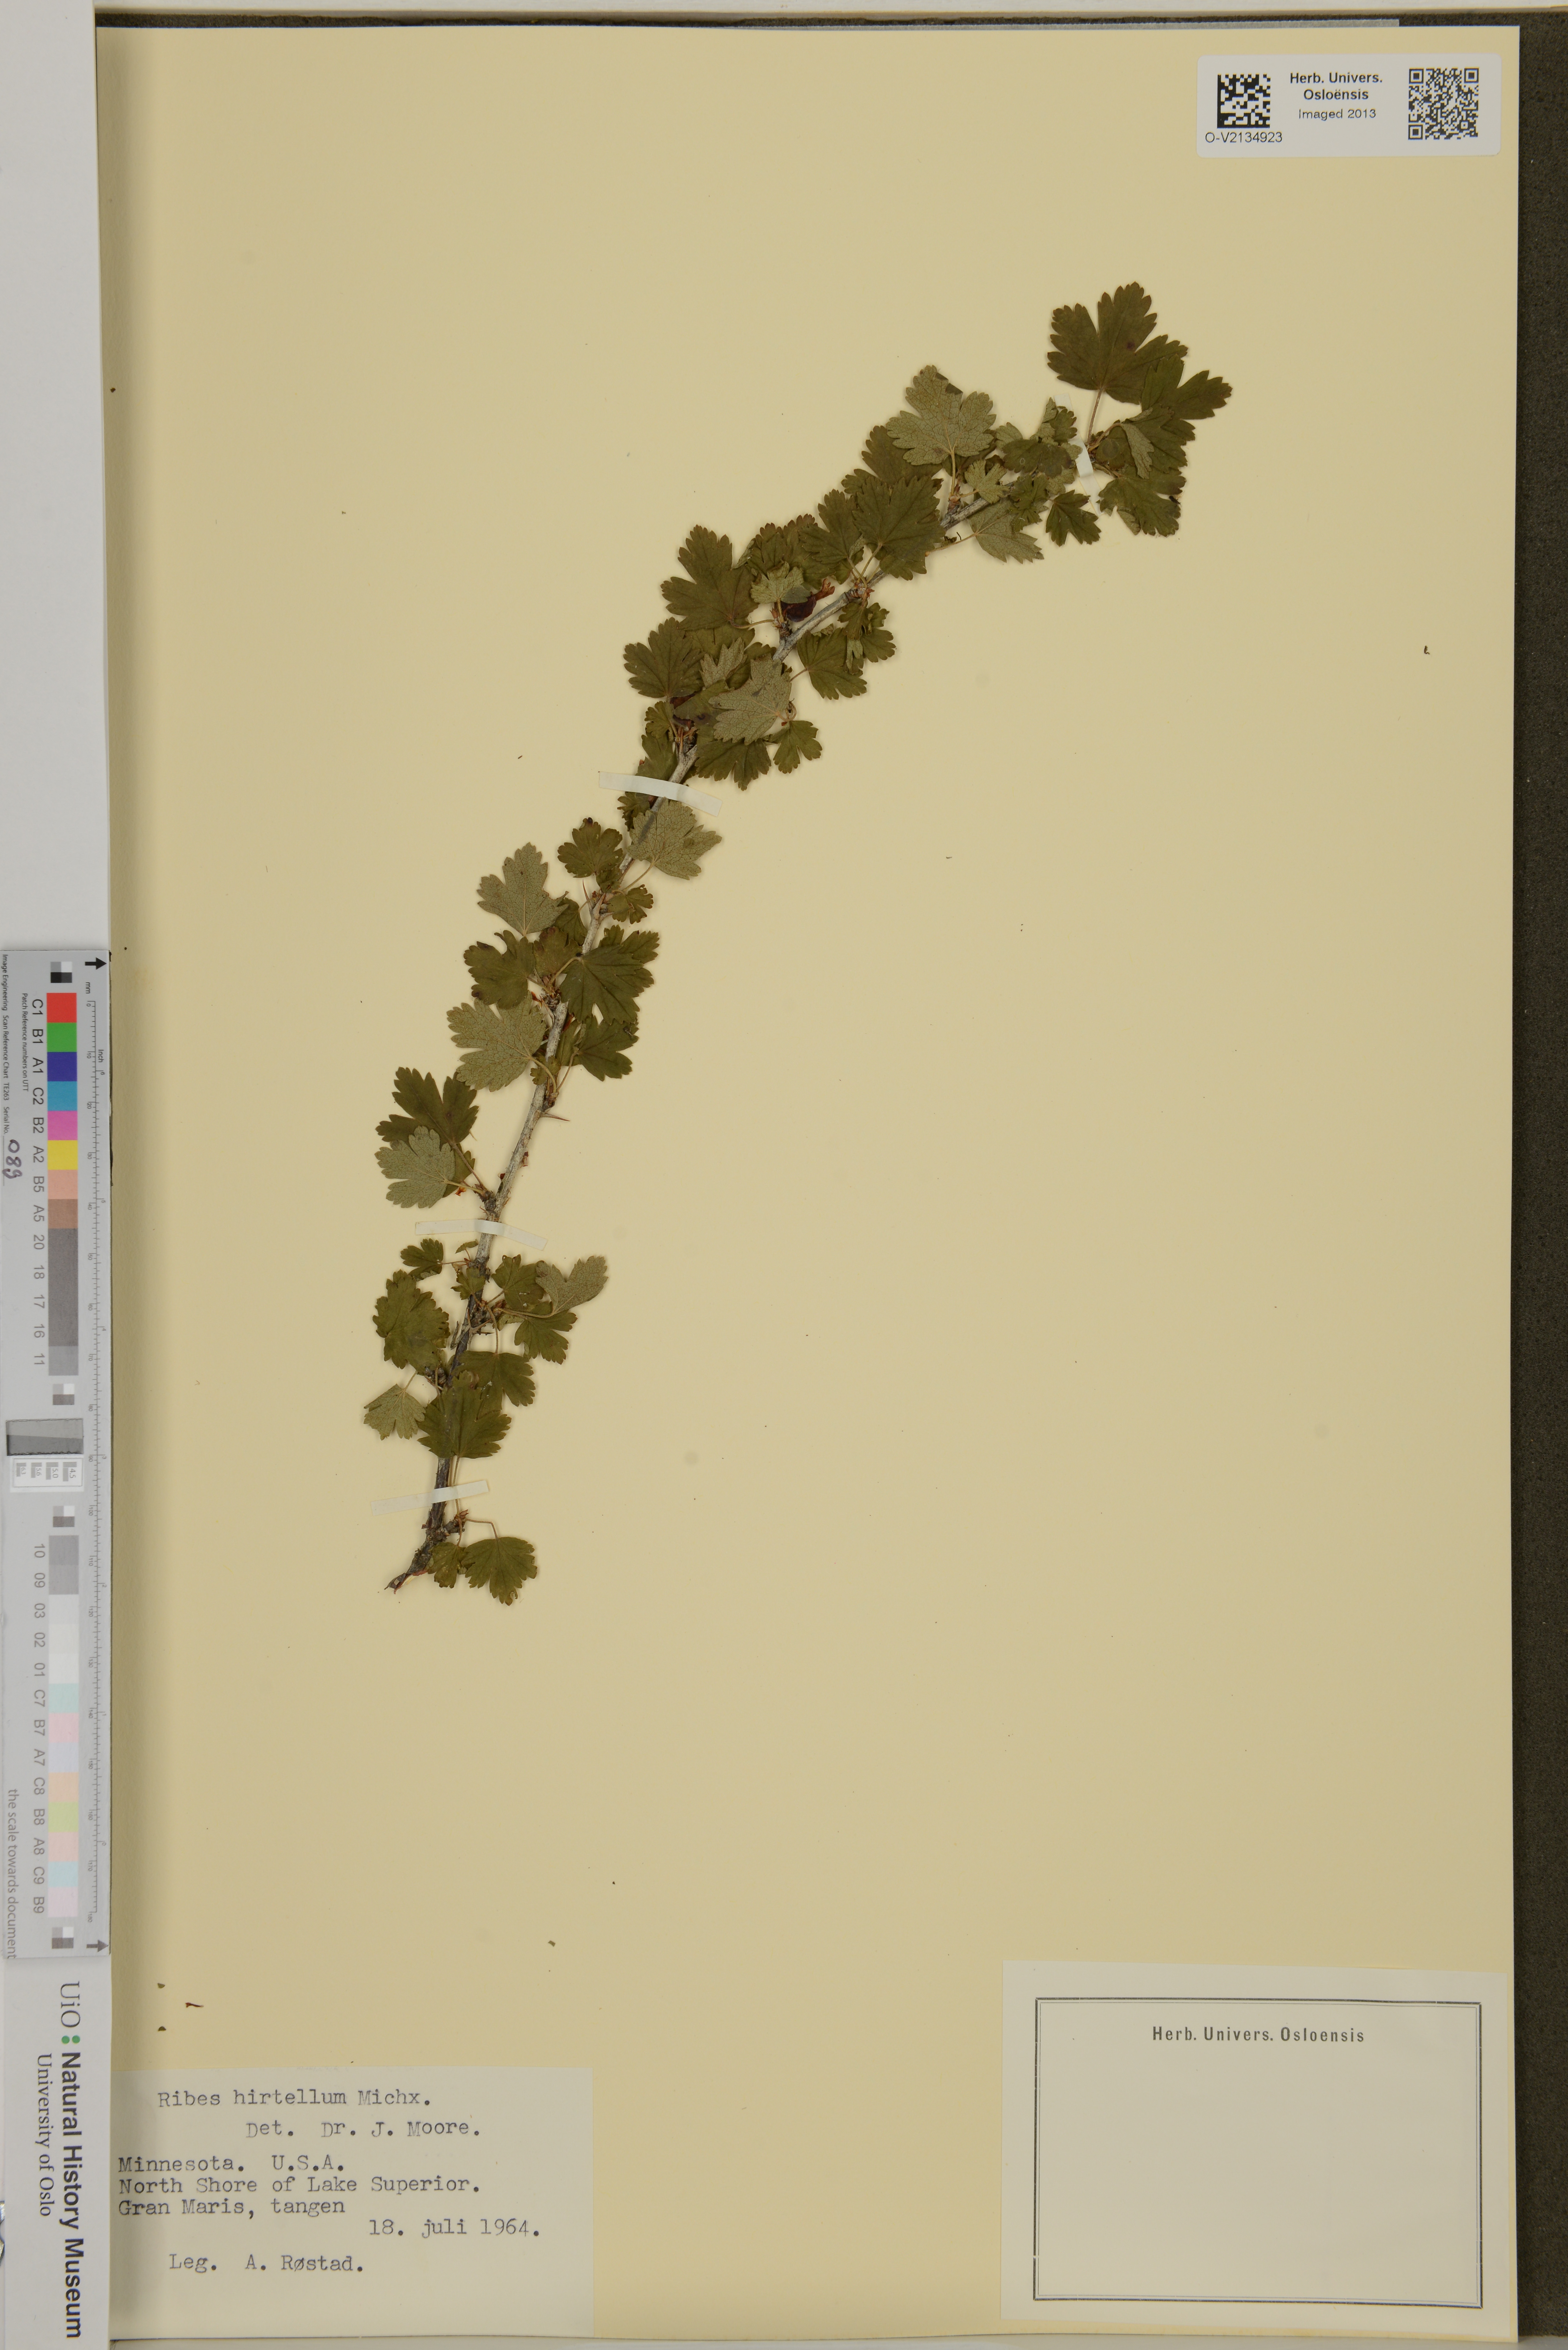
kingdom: Plantae
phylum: Tracheophyta
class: Magnoliopsida
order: Saxifragales
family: Grossulariaceae
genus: Ribes
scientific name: Ribes hirtellum
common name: Hairy gooseberry
